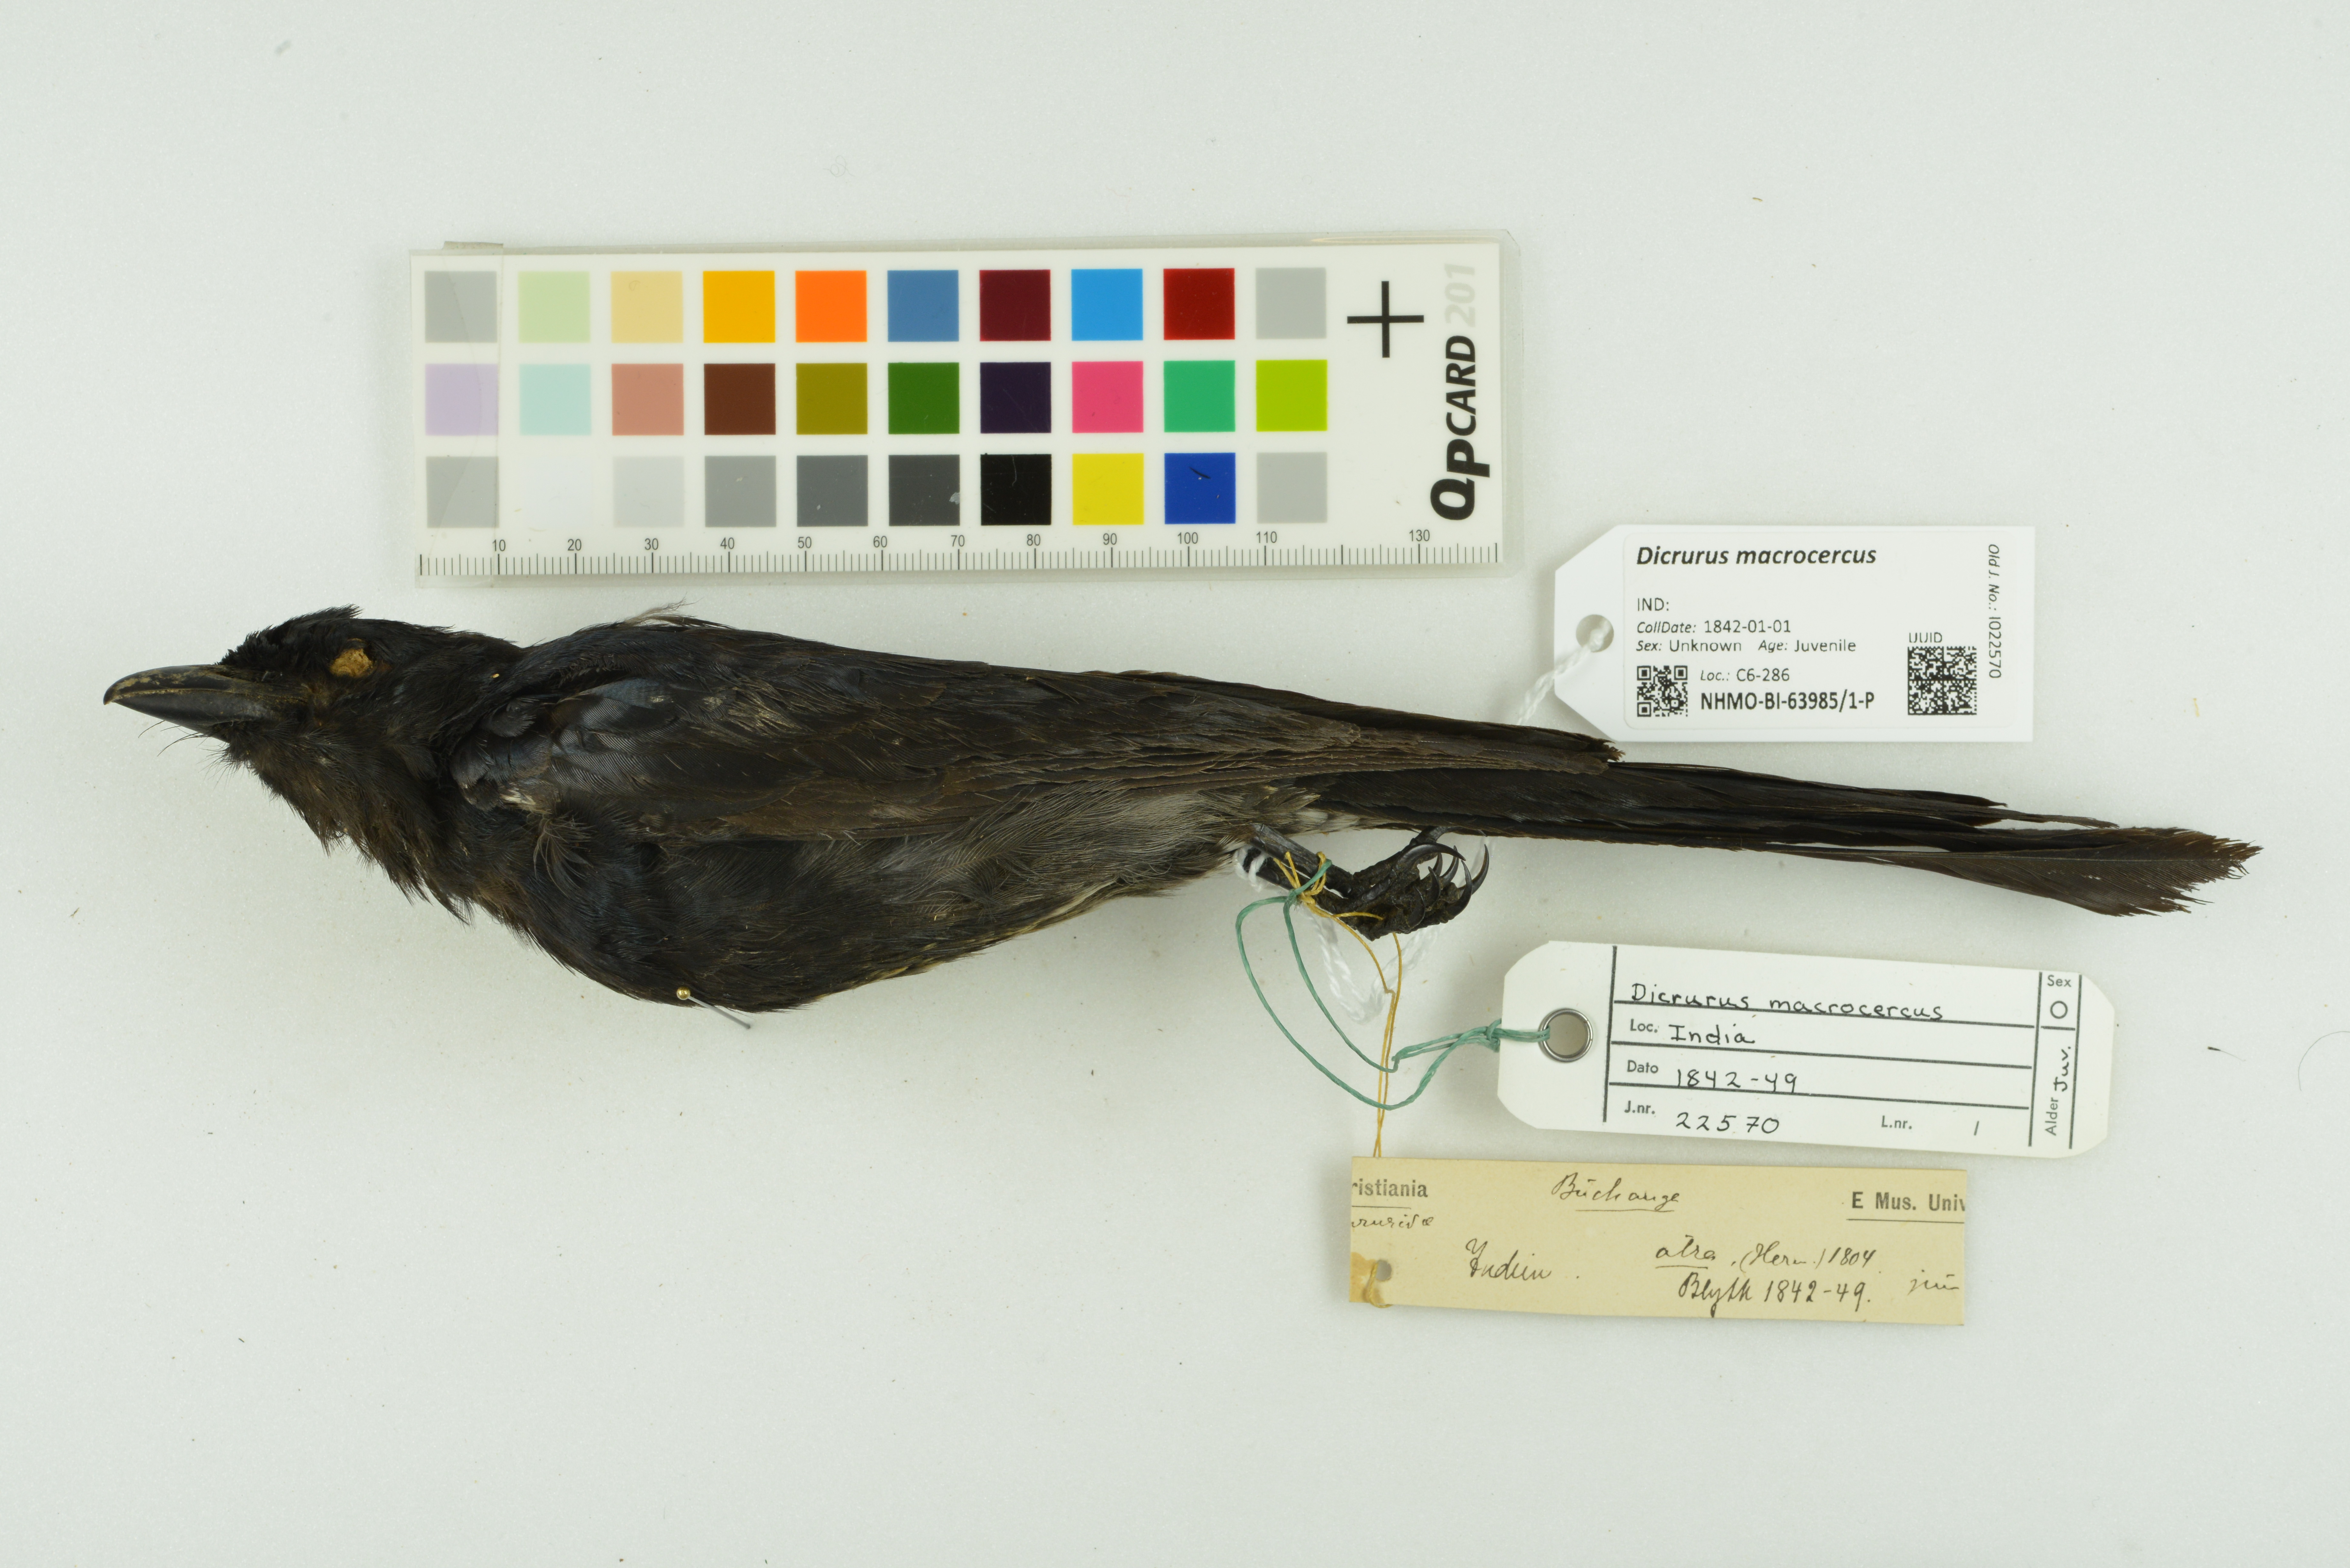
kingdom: Animalia
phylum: Chordata
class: Aves
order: Passeriformes
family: Dicruridae
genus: Dicrurus
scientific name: Dicrurus macrocercus
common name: Black drongo
